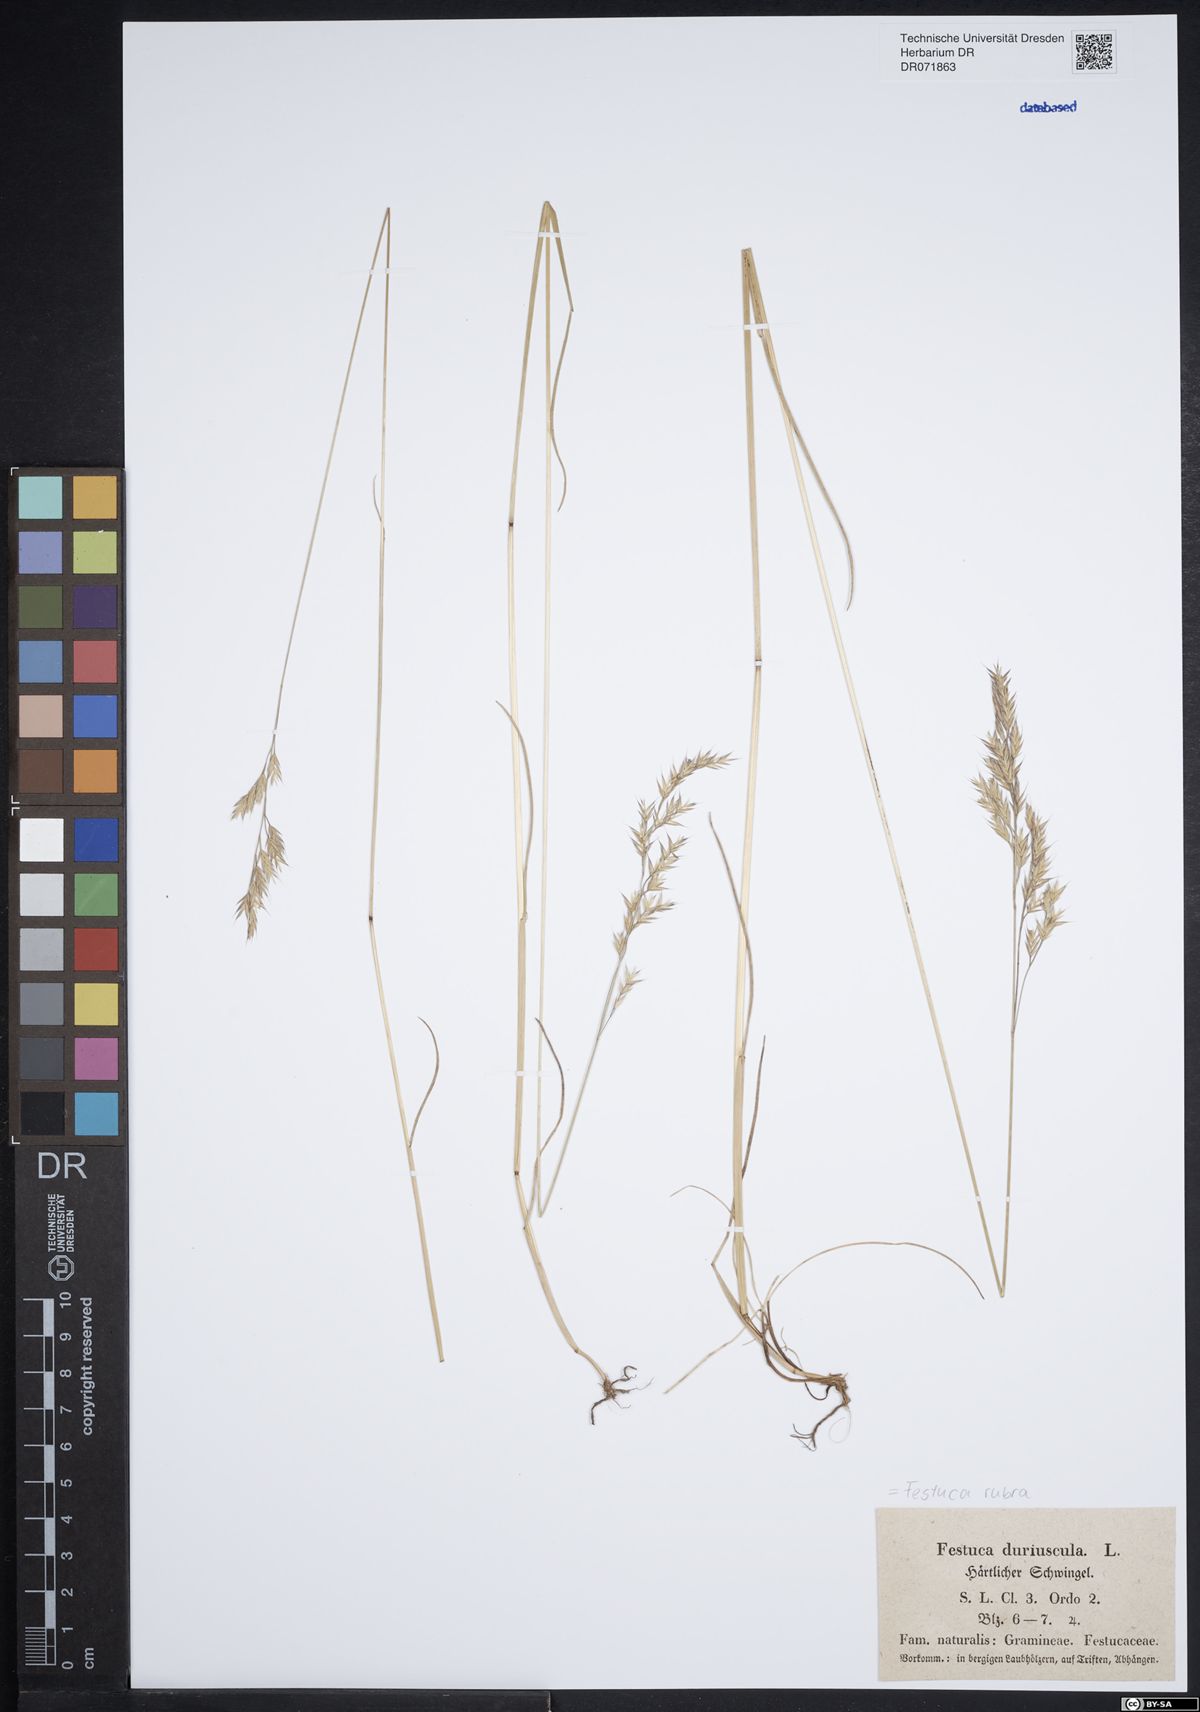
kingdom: Plantae
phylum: Tracheophyta
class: Liliopsida
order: Poales
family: Poaceae
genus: Festuca
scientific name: Festuca rubra
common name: Red fescue
